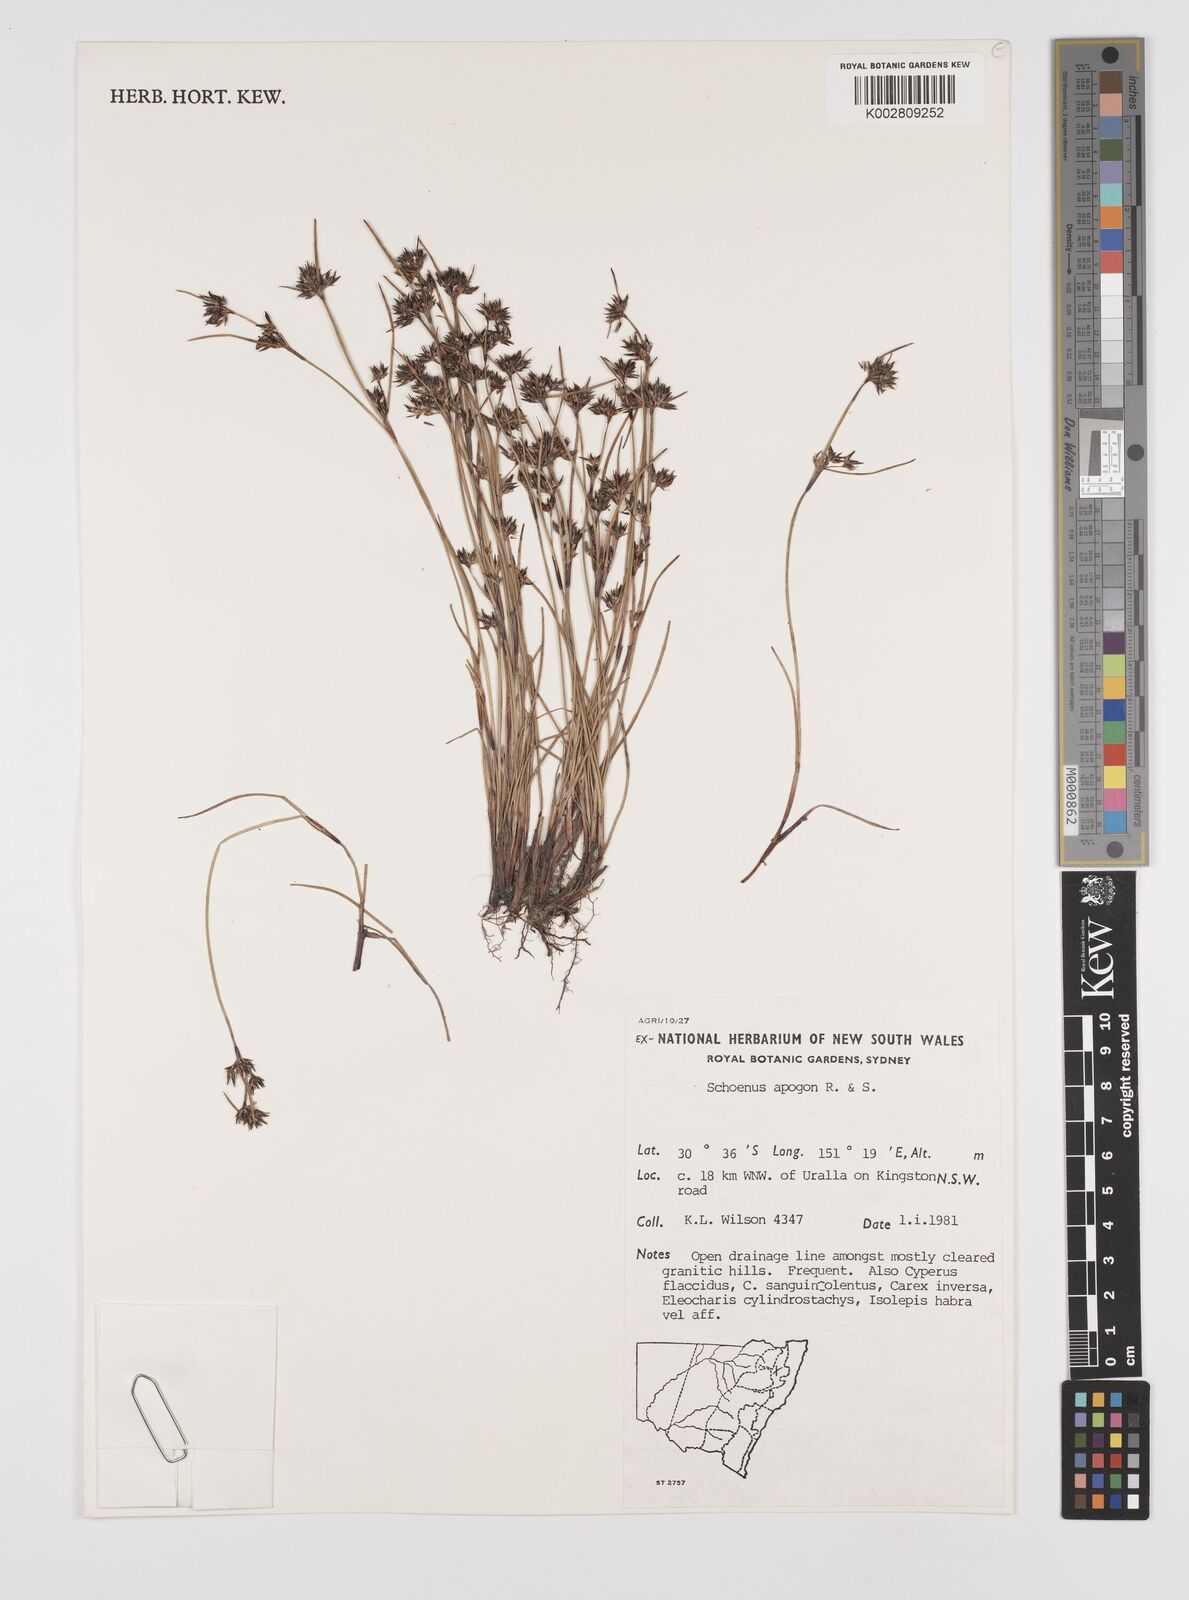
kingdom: Plantae
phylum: Tracheophyta
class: Liliopsida
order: Poales
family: Cyperaceae
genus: Schoenus
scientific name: Schoenus apogon
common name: Smooth bogrush
